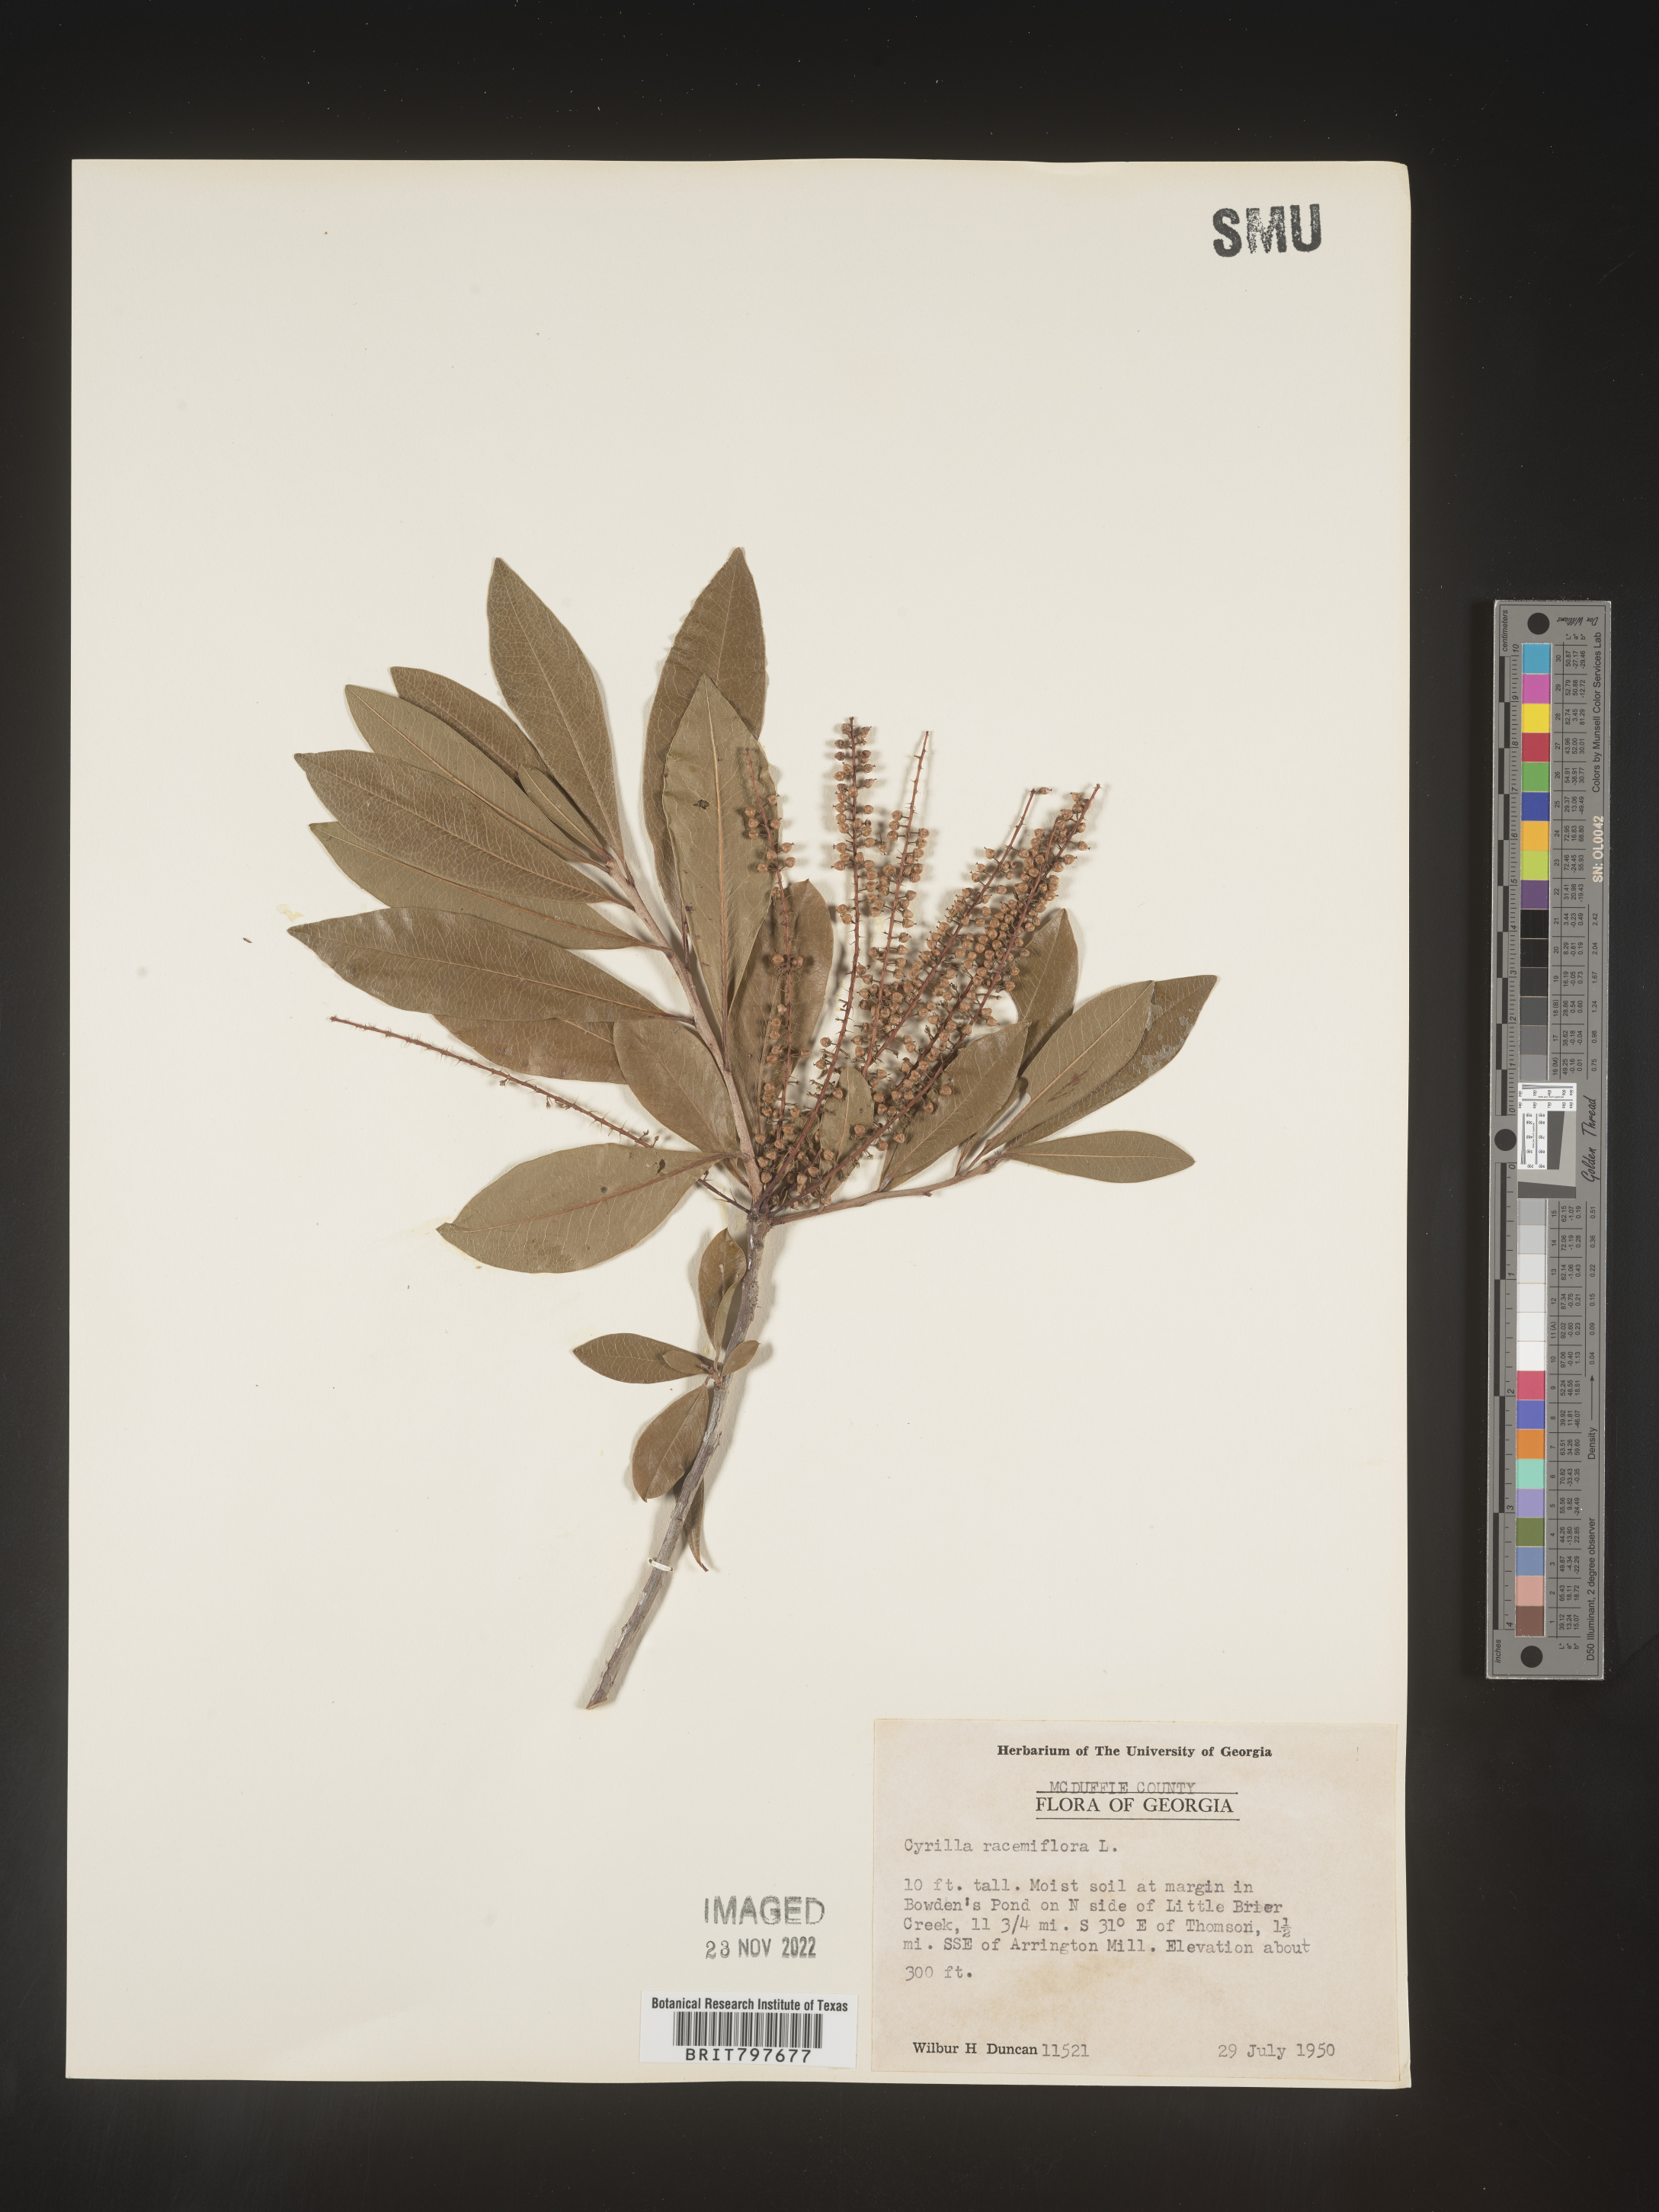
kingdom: Plantae
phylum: Tracheophyta
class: Magnoliopsida
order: Ericales
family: Cyrillaceae
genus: Cyrilla
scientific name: Cyrilla racemiflora
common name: Black titi
